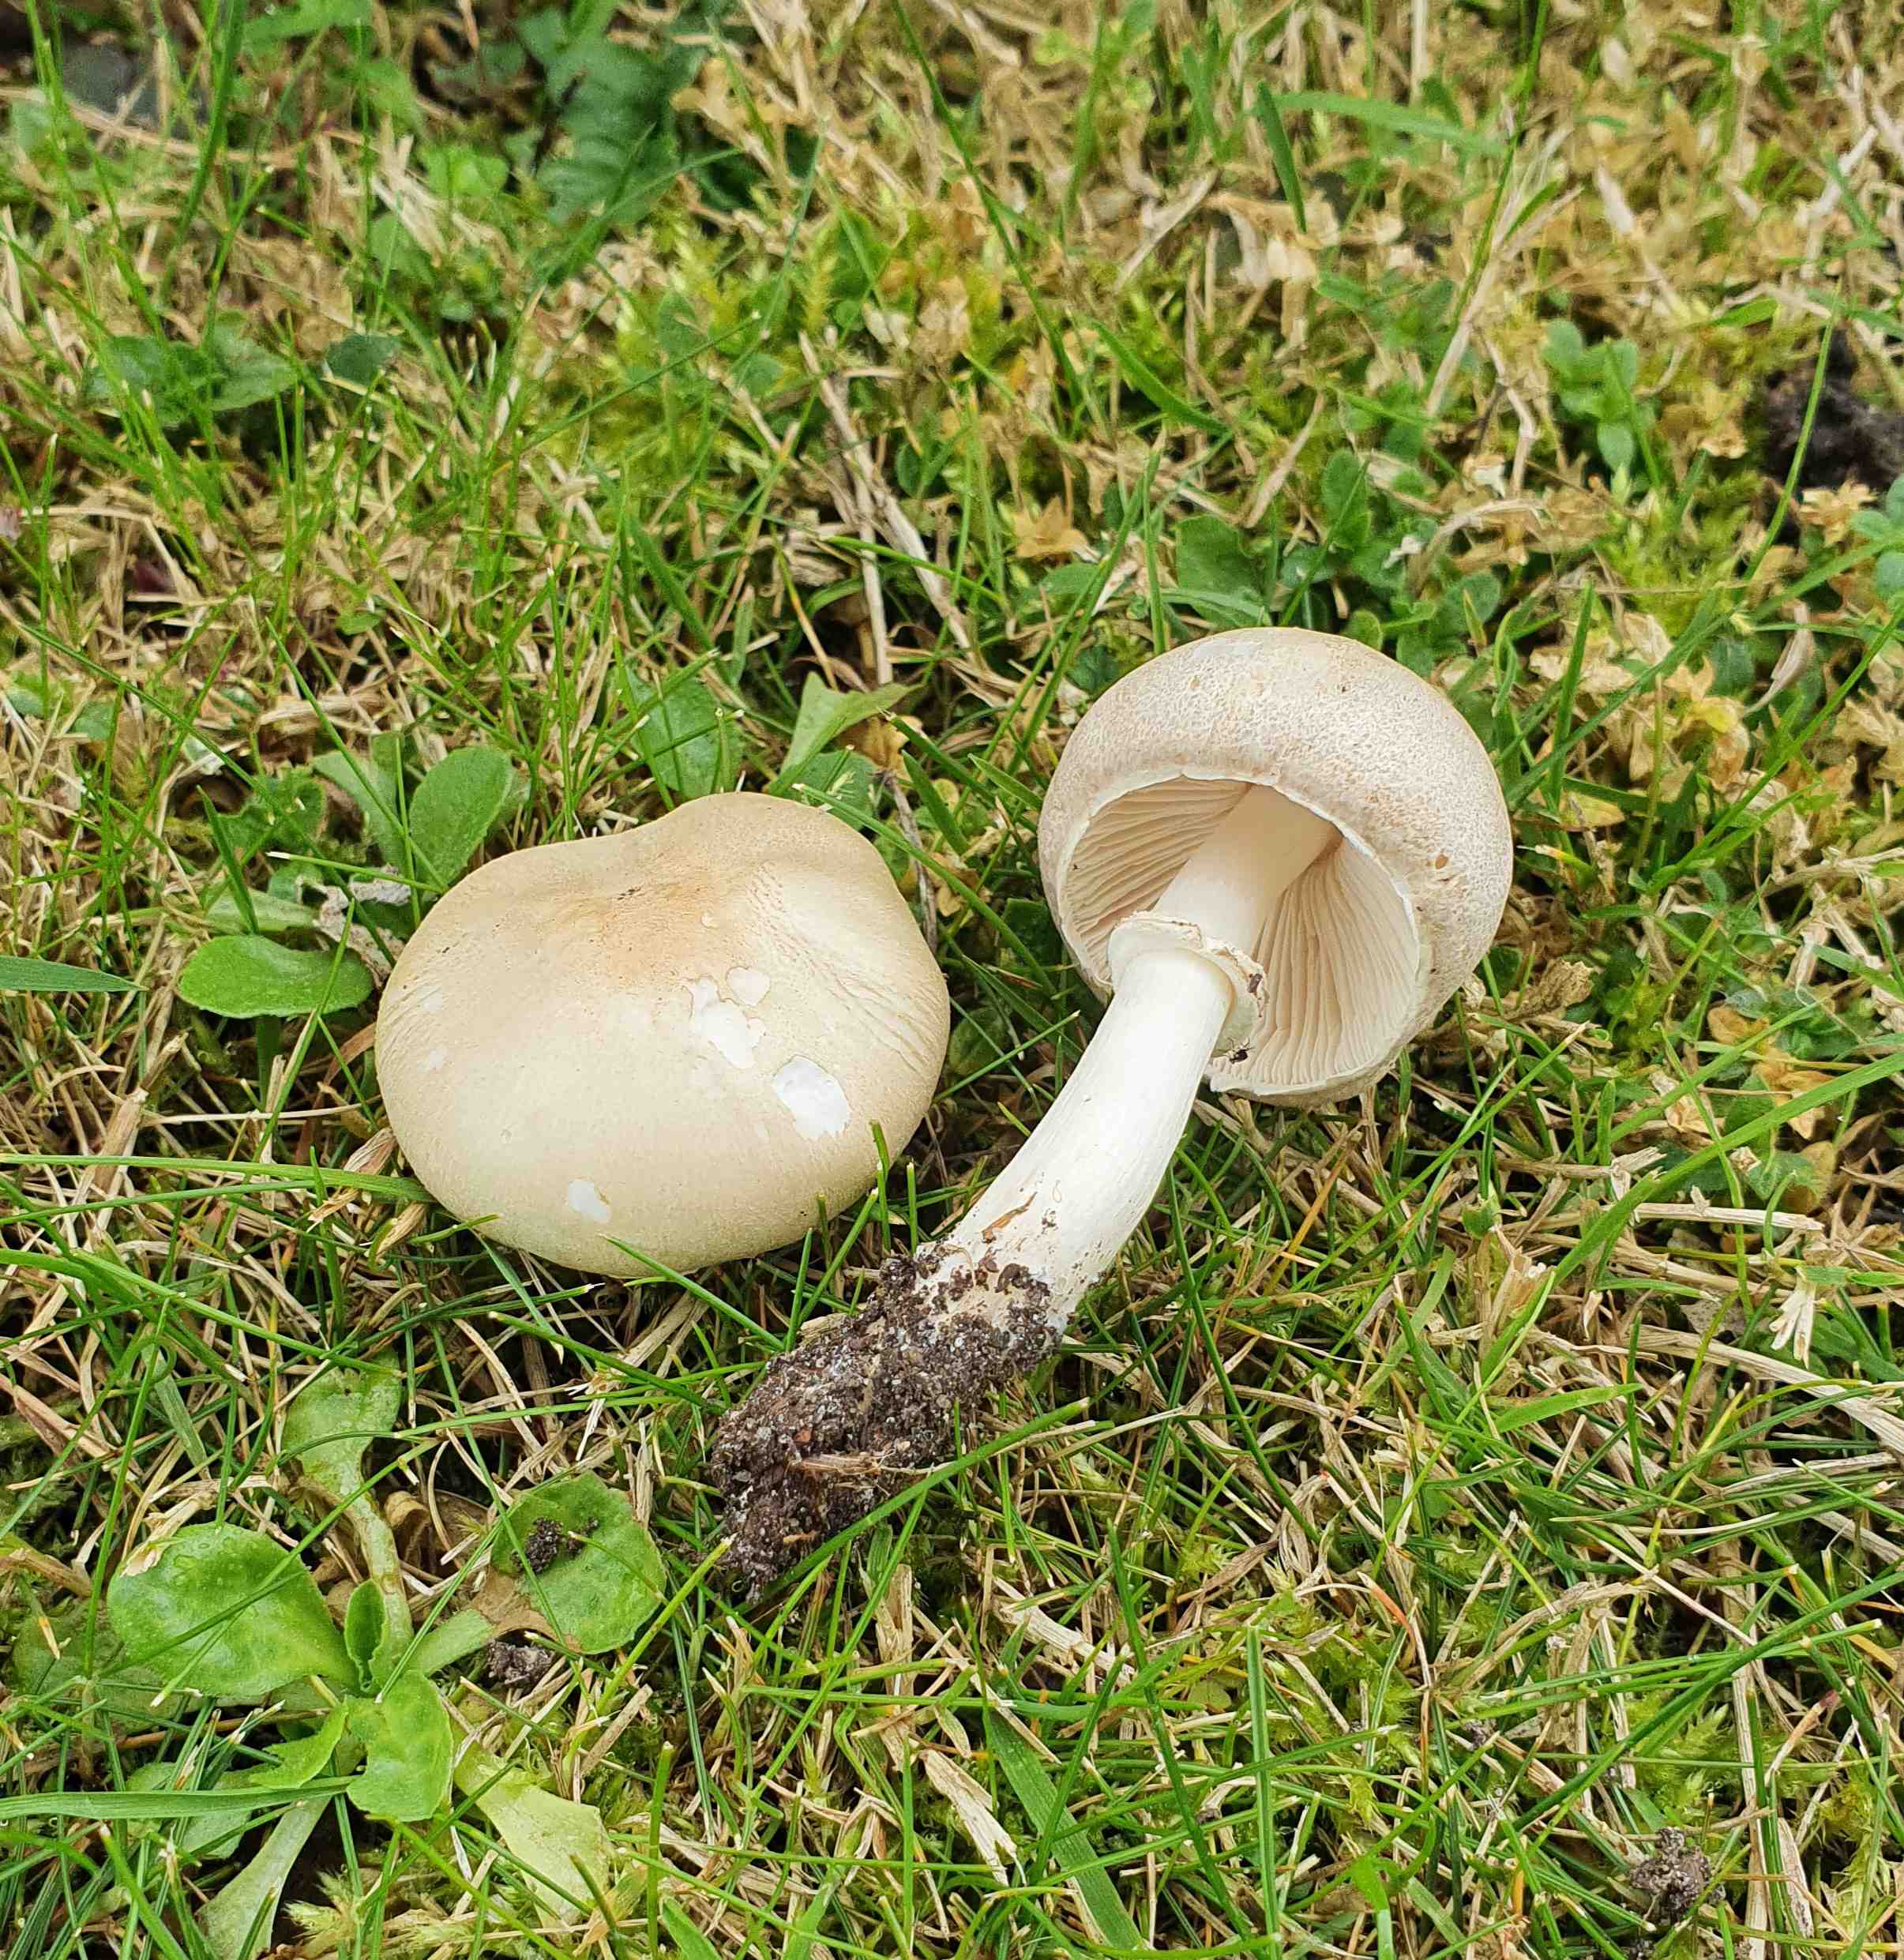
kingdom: Fungi
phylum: Basidiomycota
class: Agaricomycetes
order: Agaricales
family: Agaricaceae
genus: Leucoagaricus
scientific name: Leucoagaricus leucothites
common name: rosabladet silkehat
